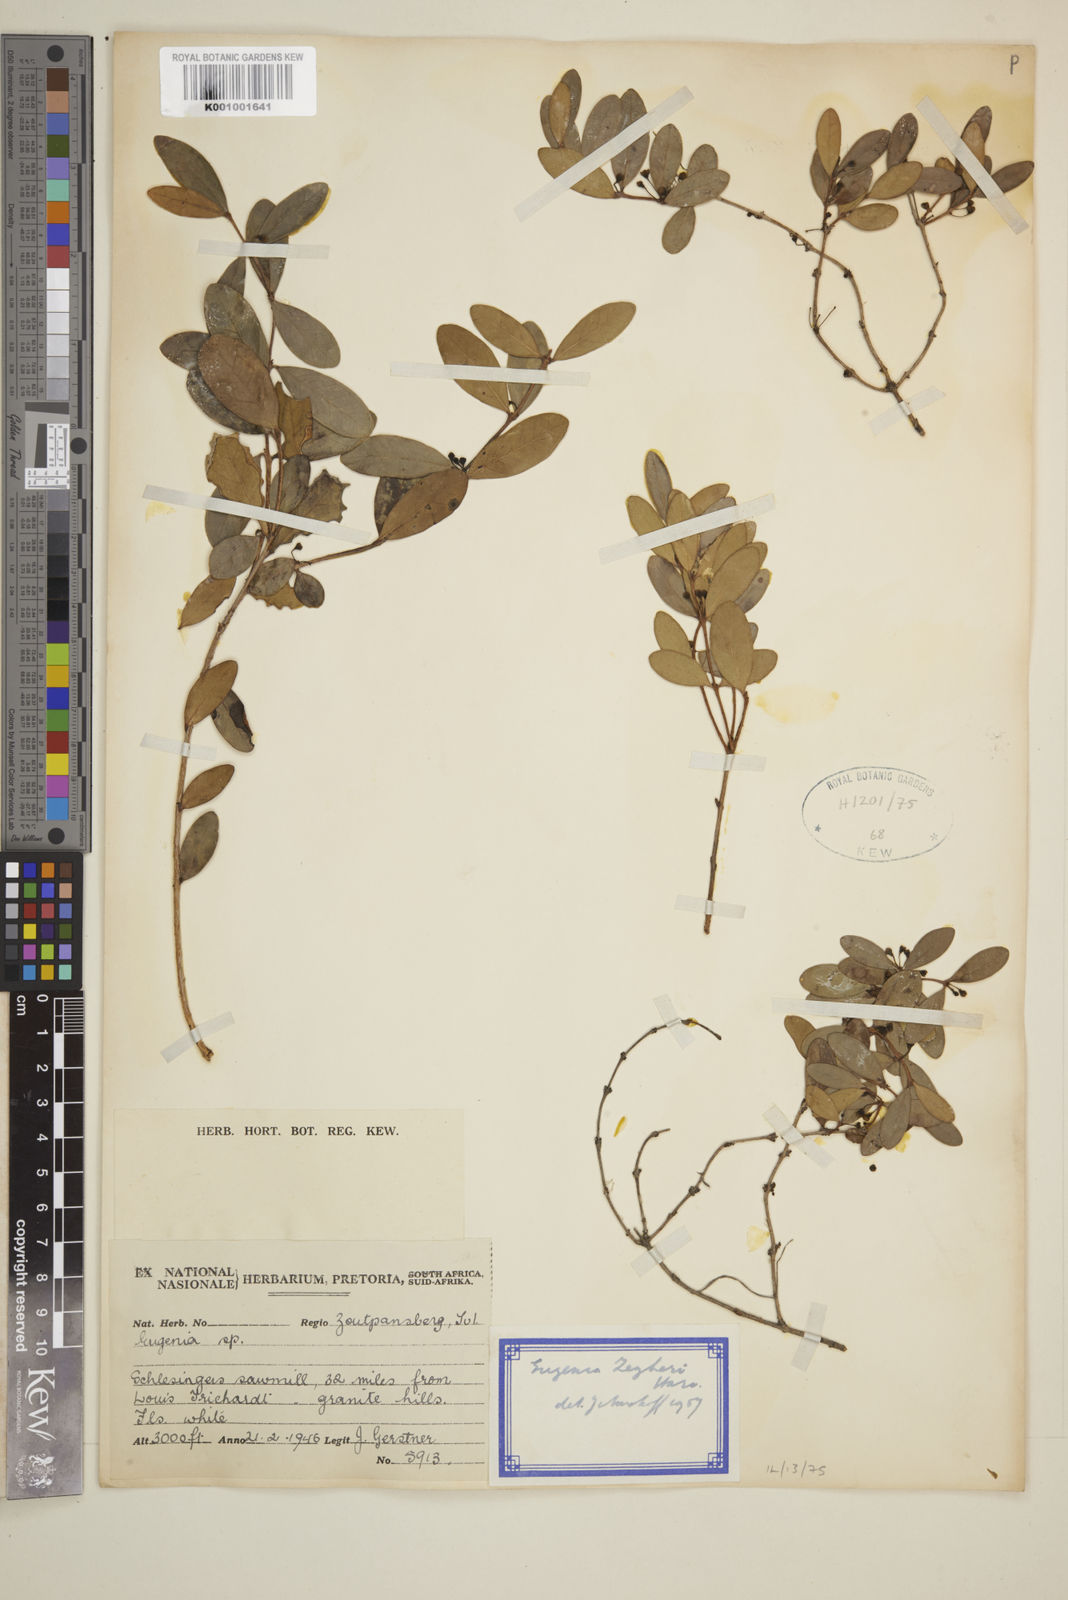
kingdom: Plantae
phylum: Tracheophyta
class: Magnoliopsida
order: Myrtales
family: Myrtaceae
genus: Eugenia
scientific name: Eugenia zeyheri
